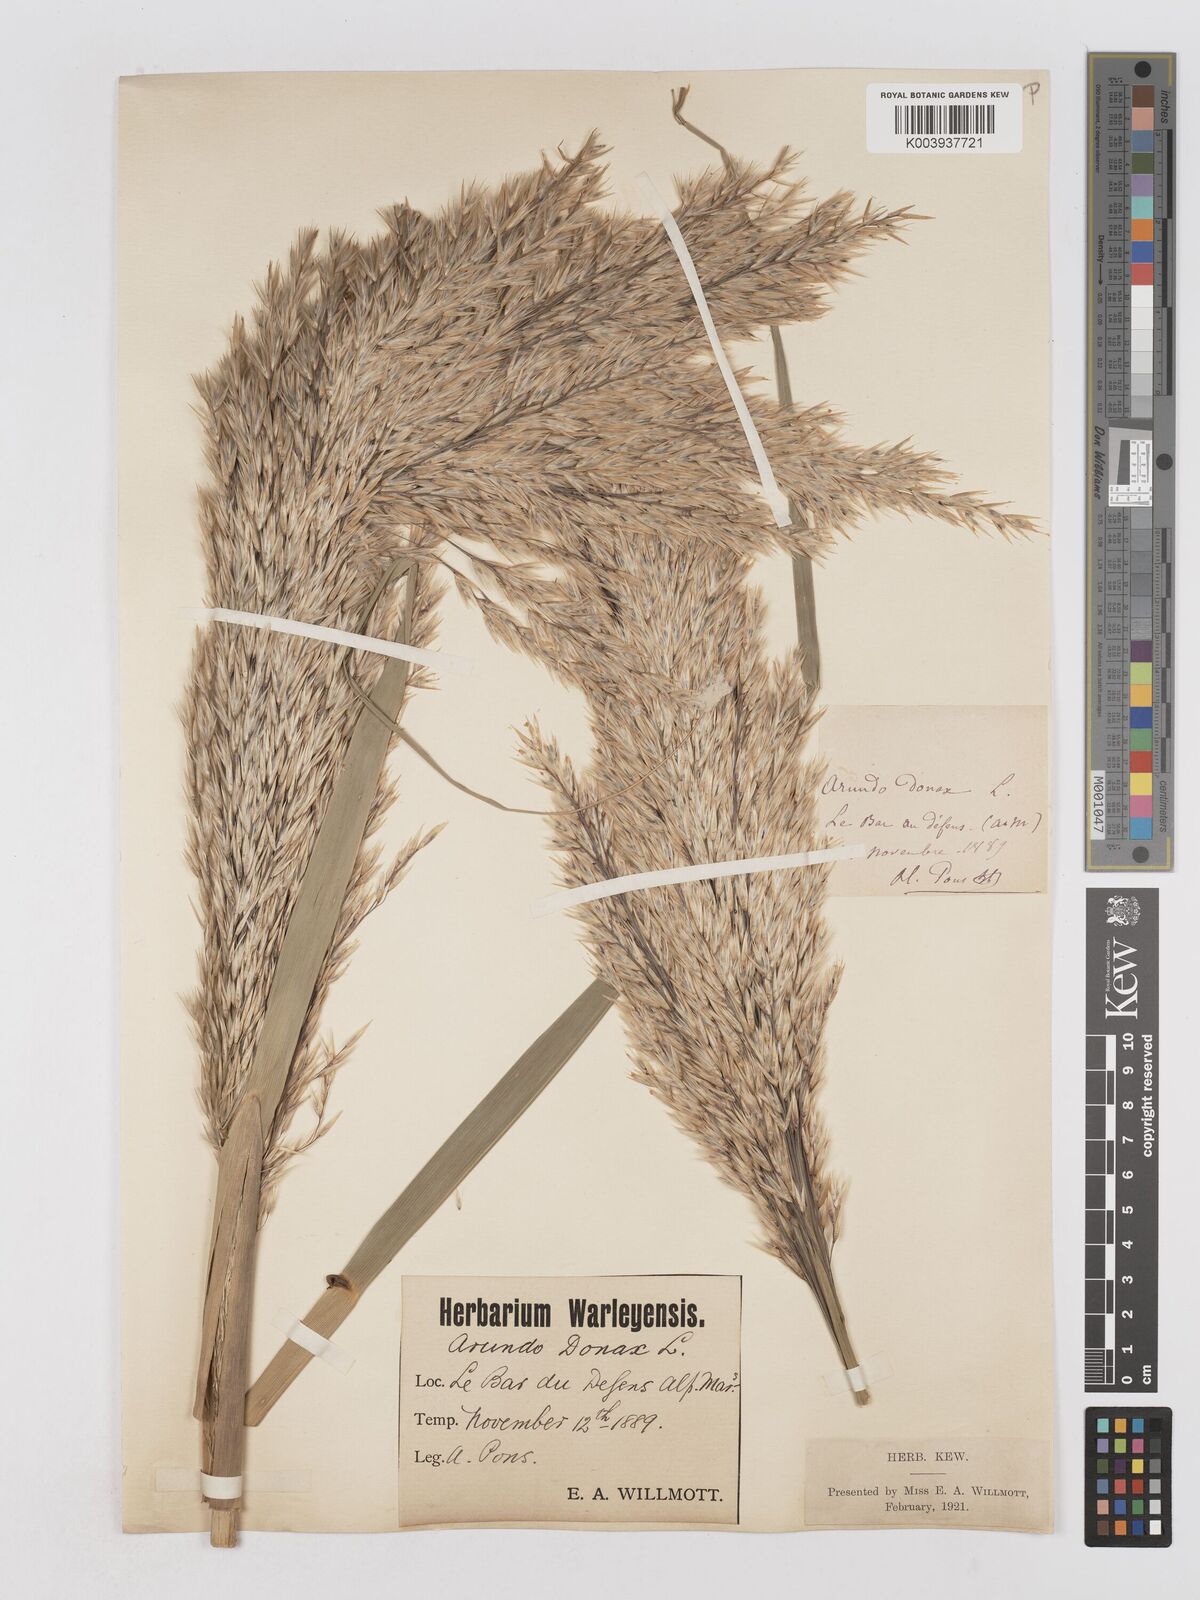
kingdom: Plantae
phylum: Tracheophyta
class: Liliopsida
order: Poales
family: Poaceae
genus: Arundo
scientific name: Arundo donax
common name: Giant reed
